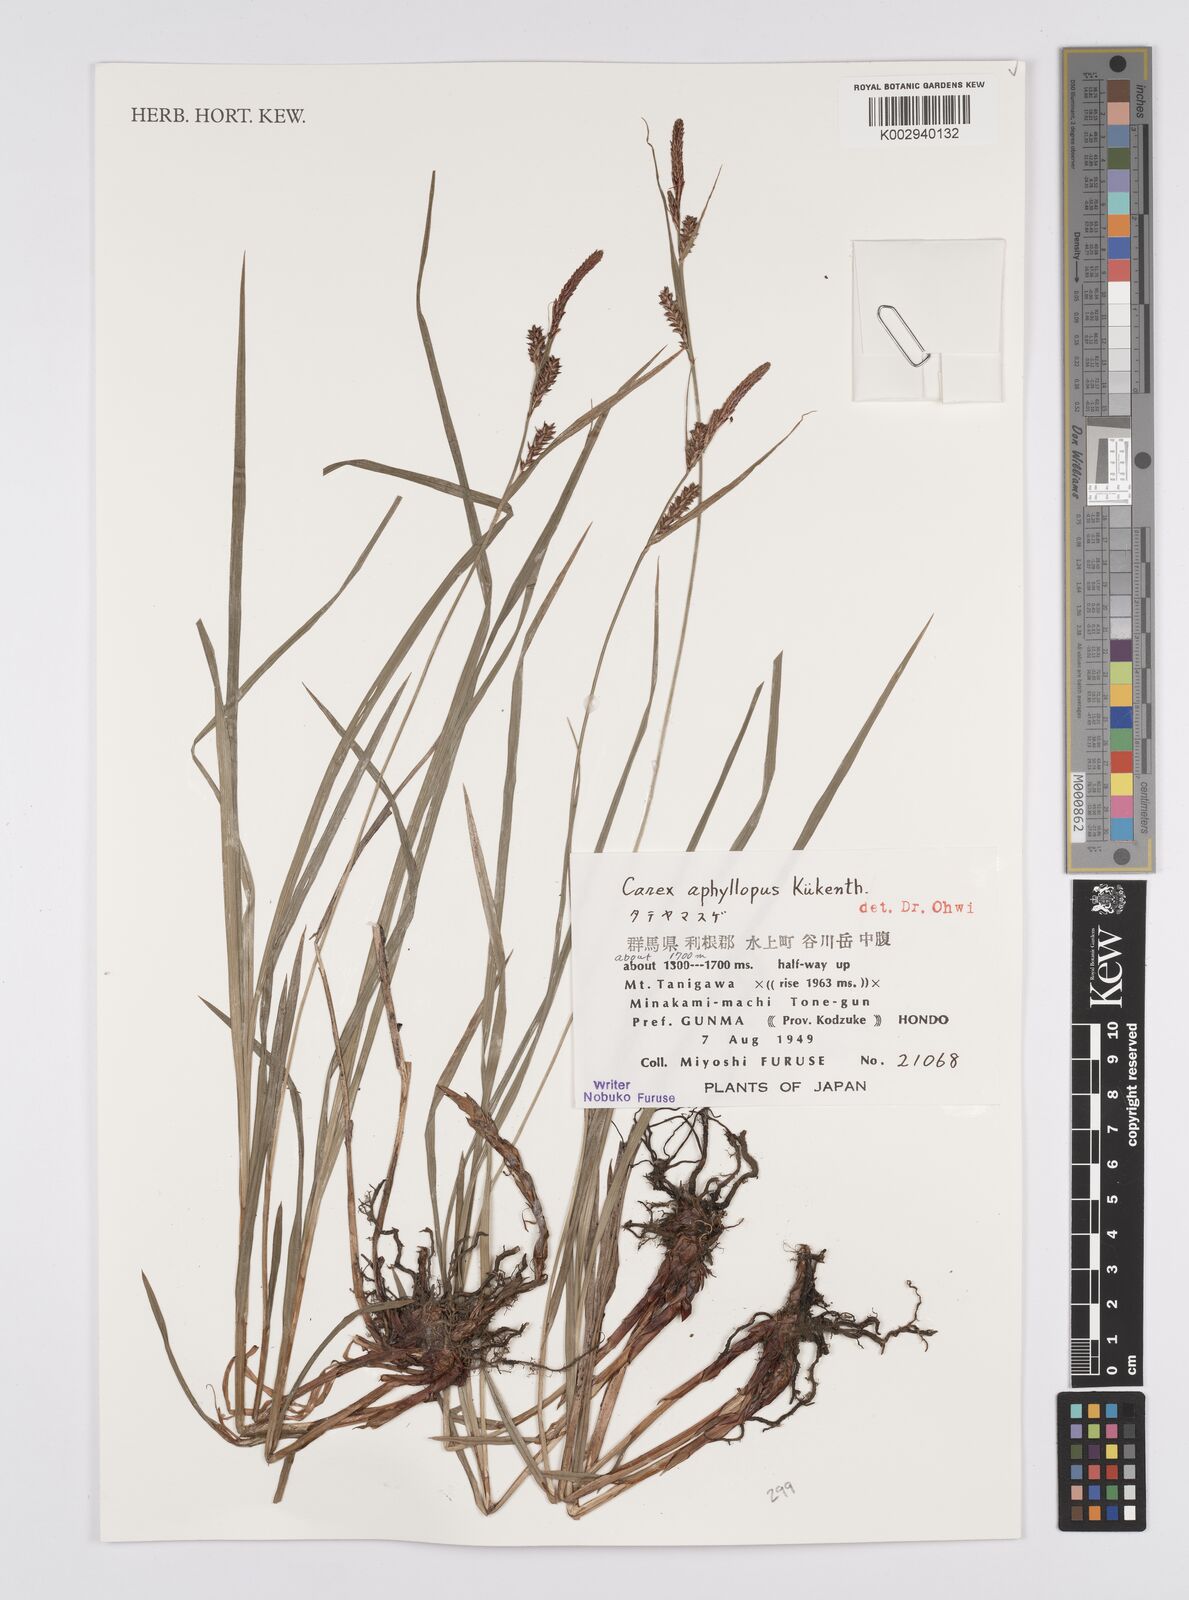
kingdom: Plantae
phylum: Tracheophyta
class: Liliopsida
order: Poales
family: Cyperaceae
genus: Carex
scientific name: Carex aphyllopus
